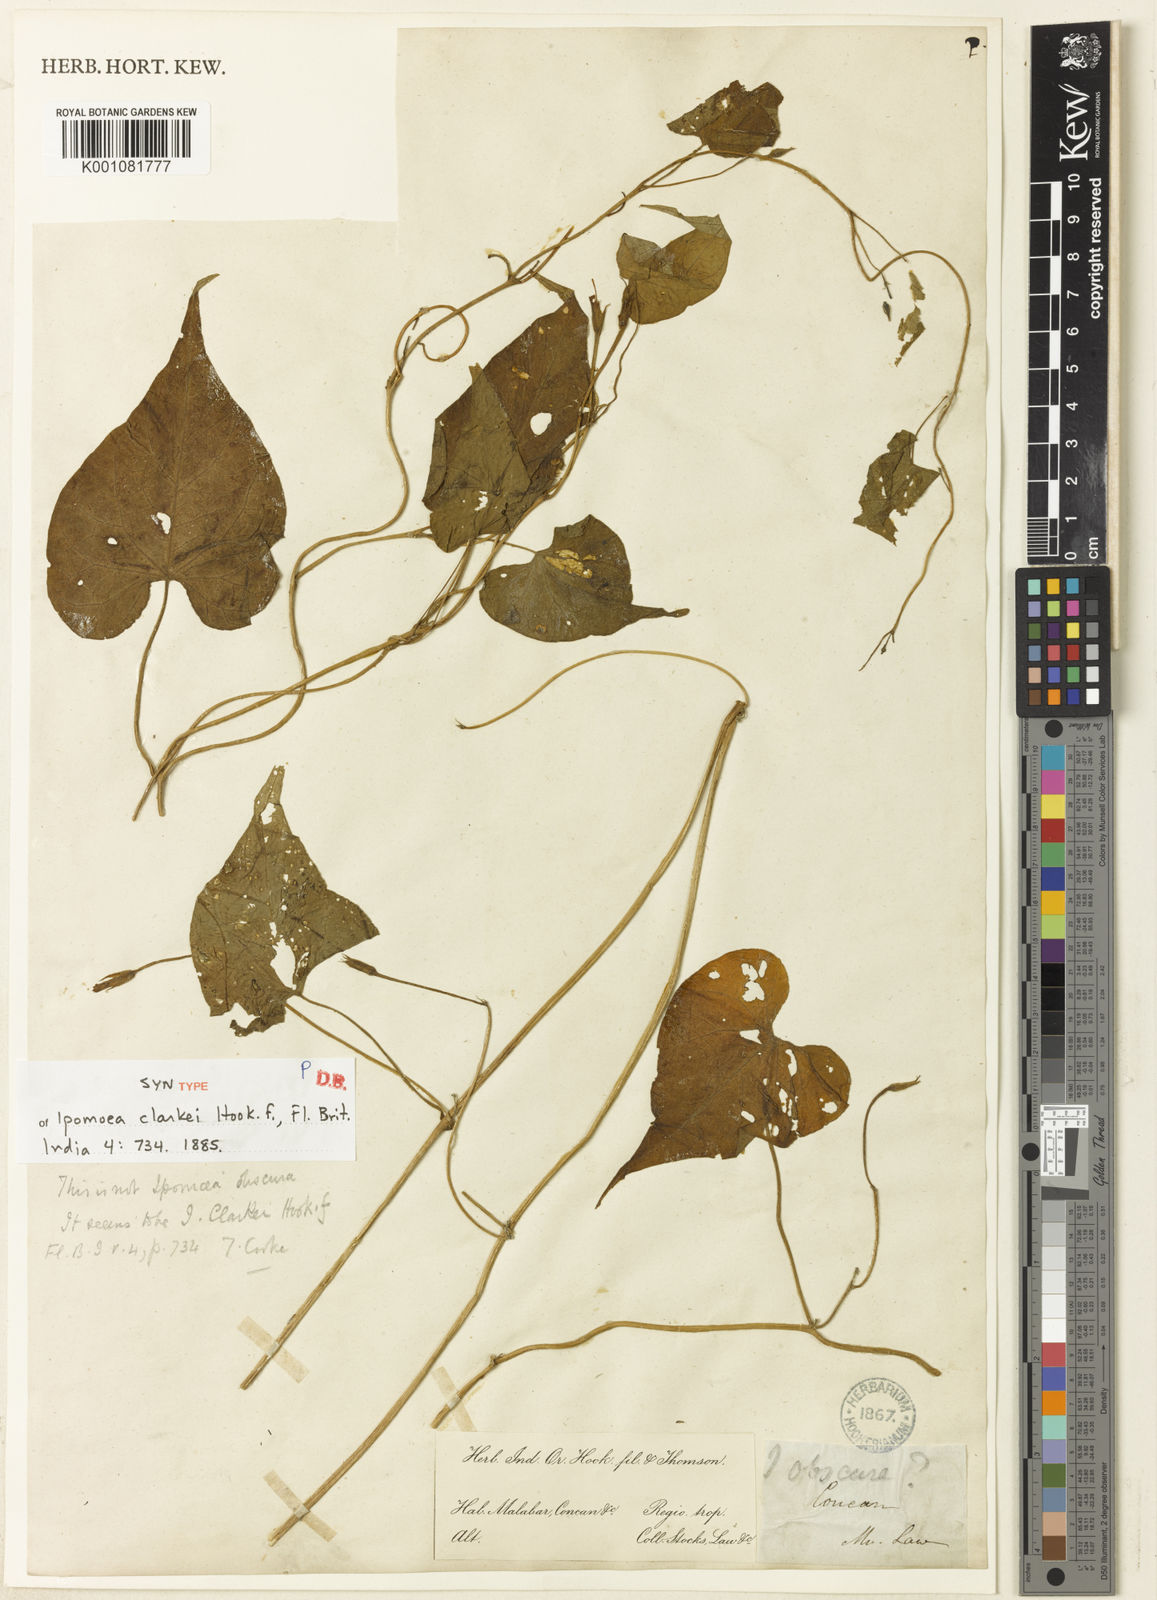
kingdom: Plantae
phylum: Tracheophyta
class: Magnoliopsida
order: Solanales
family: Convolvulaceae
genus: Ipomoea
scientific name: Ipomoea clarkei
